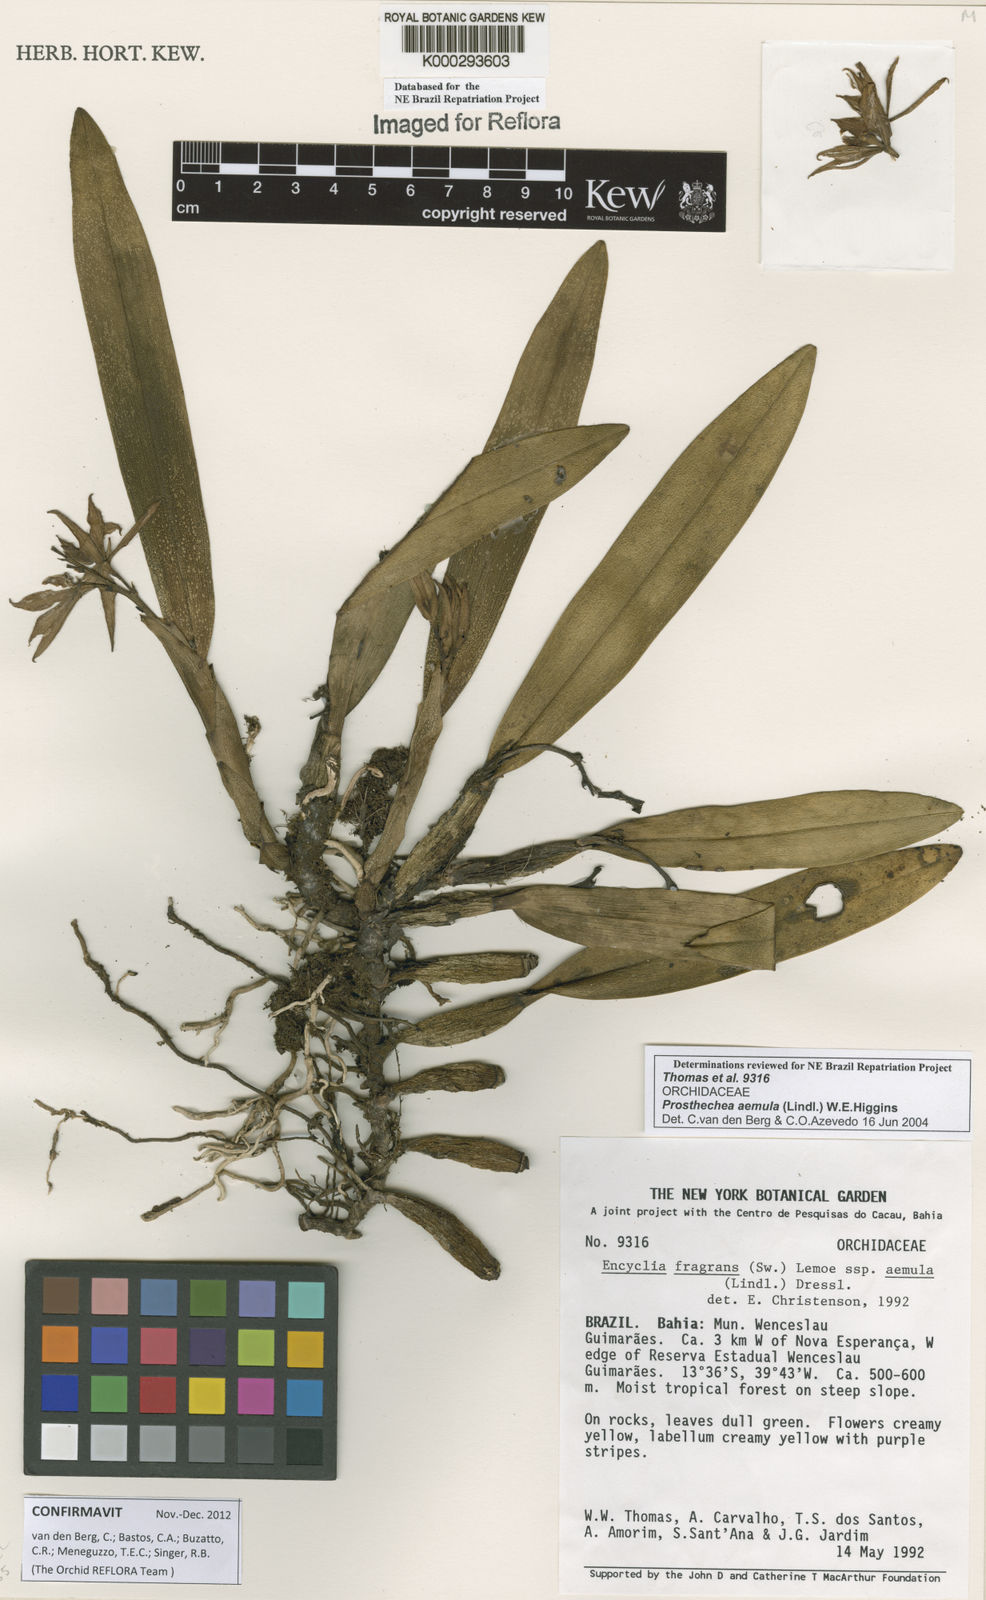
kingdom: Plantae
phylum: Tracheophyta
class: Liliopsida
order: Asparagales
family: Orchidaceae
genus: Prosthechea
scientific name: Prosthechea aemula
